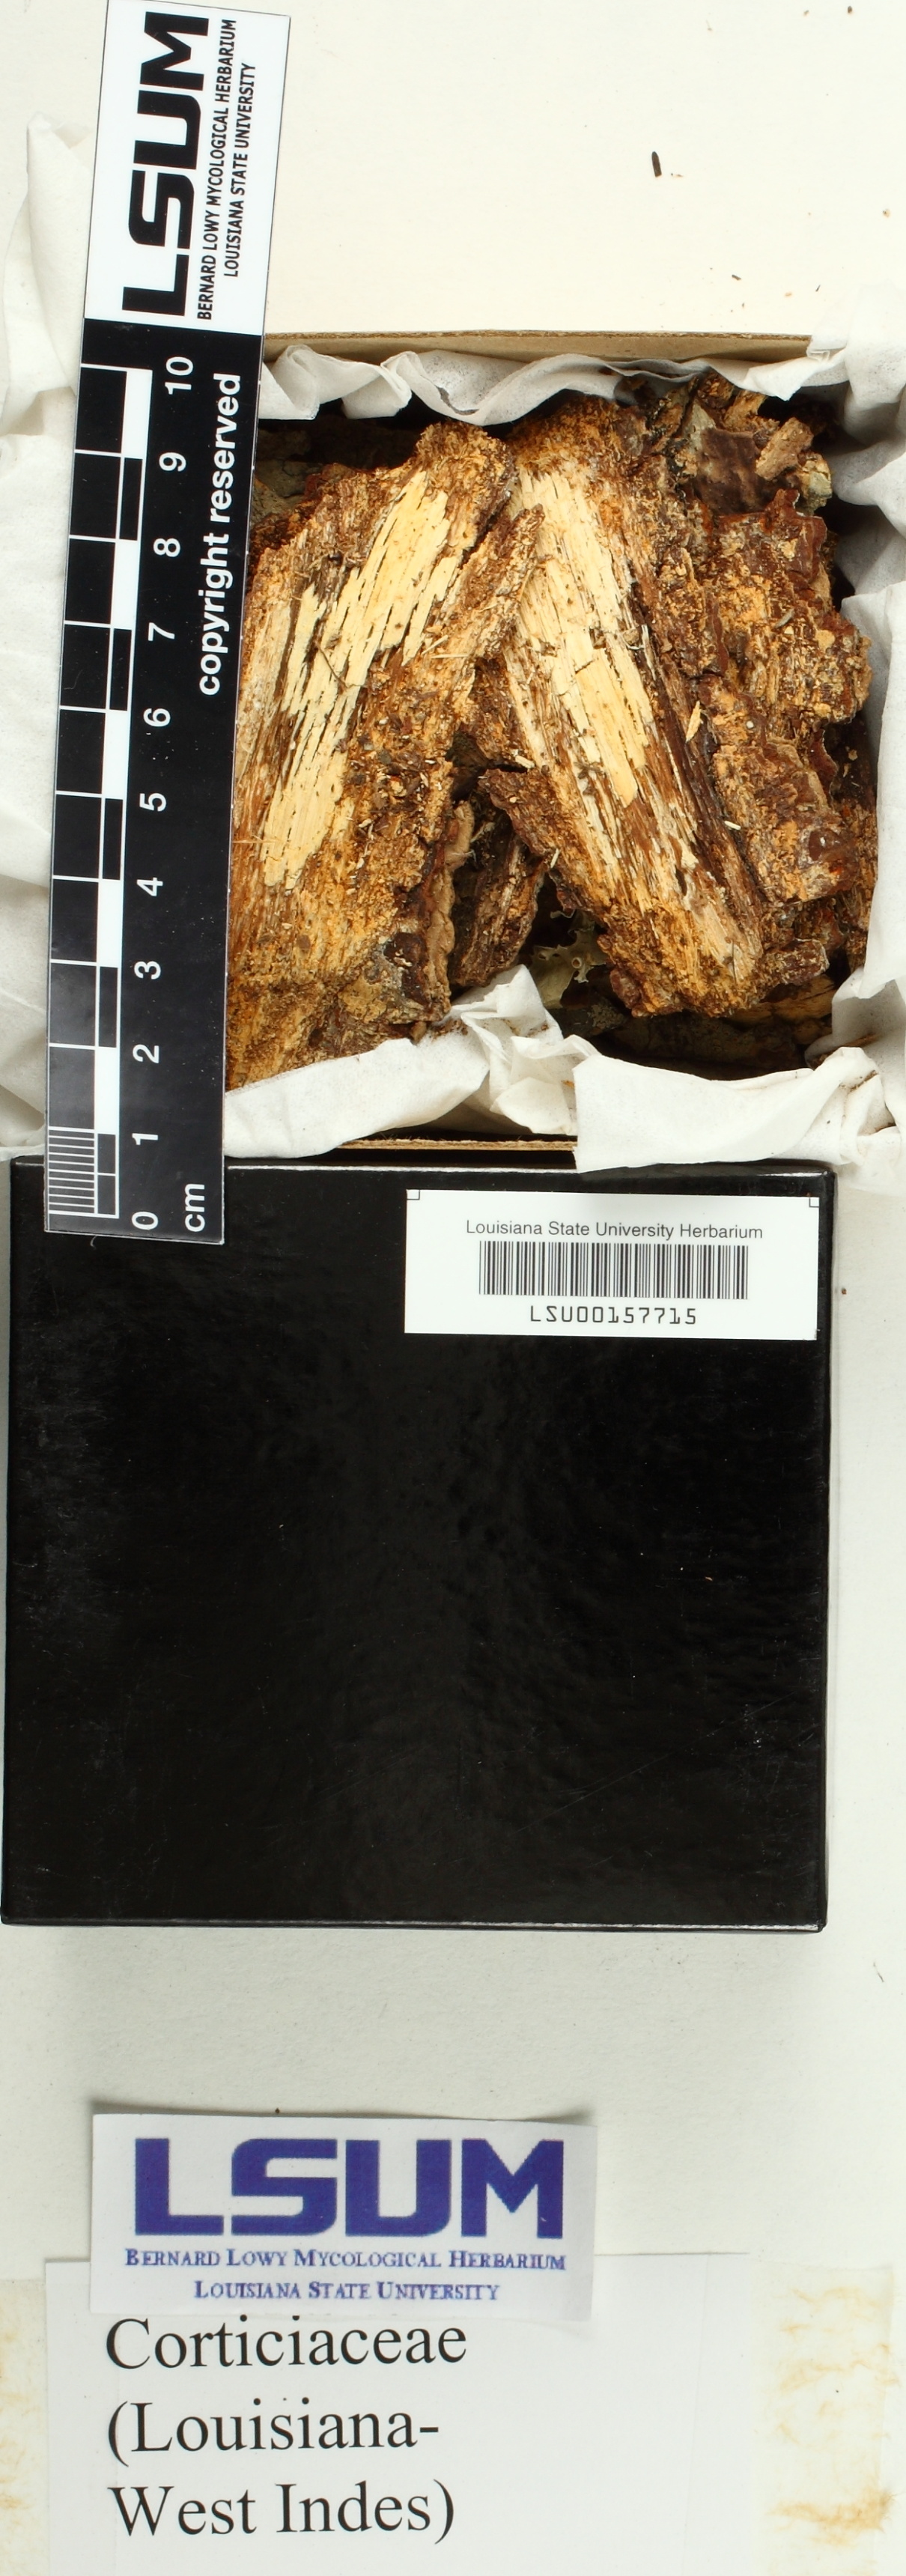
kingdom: Fungi
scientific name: Fungi
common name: Fungi
